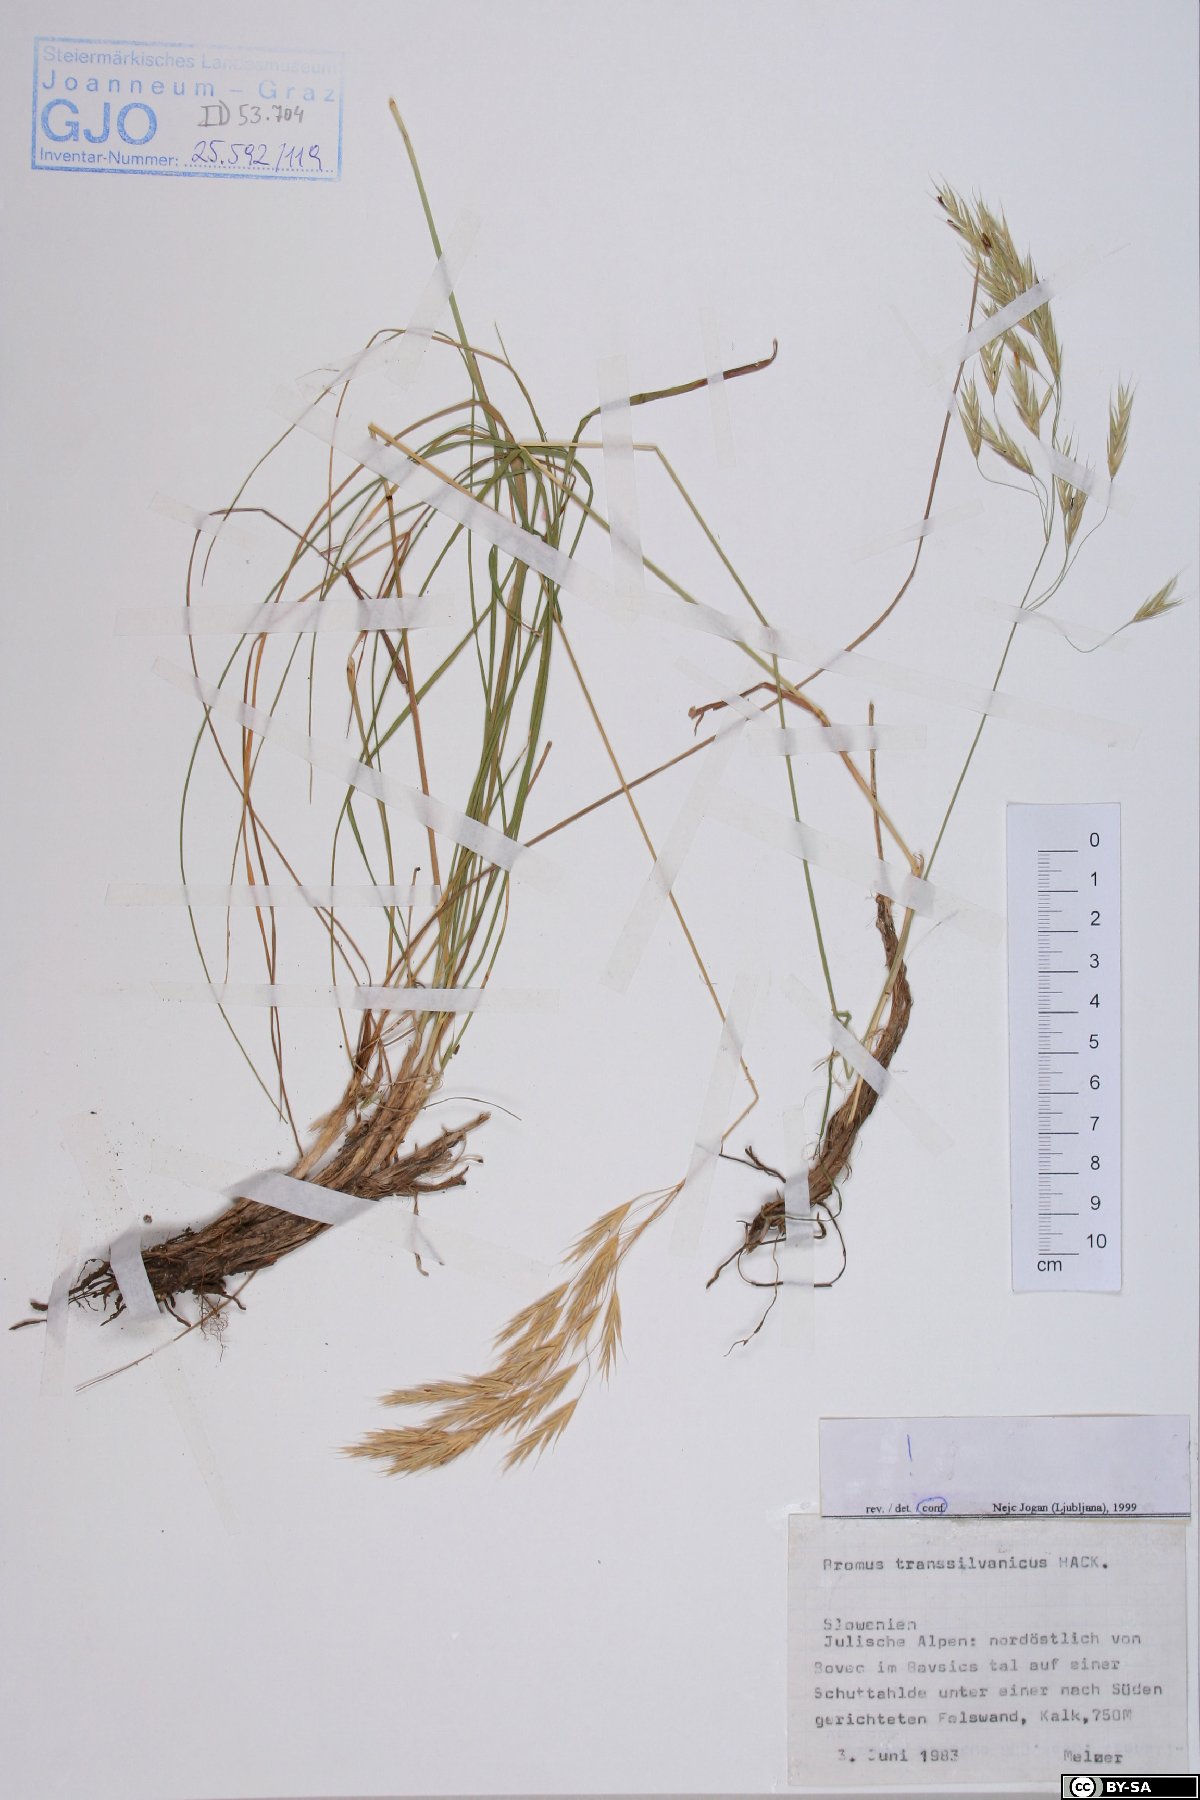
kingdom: Plantae
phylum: Tracheophyta
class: Liliopsida
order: Poales
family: Poaceae
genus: Bromus
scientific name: Bromus erectus
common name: Erect brome
